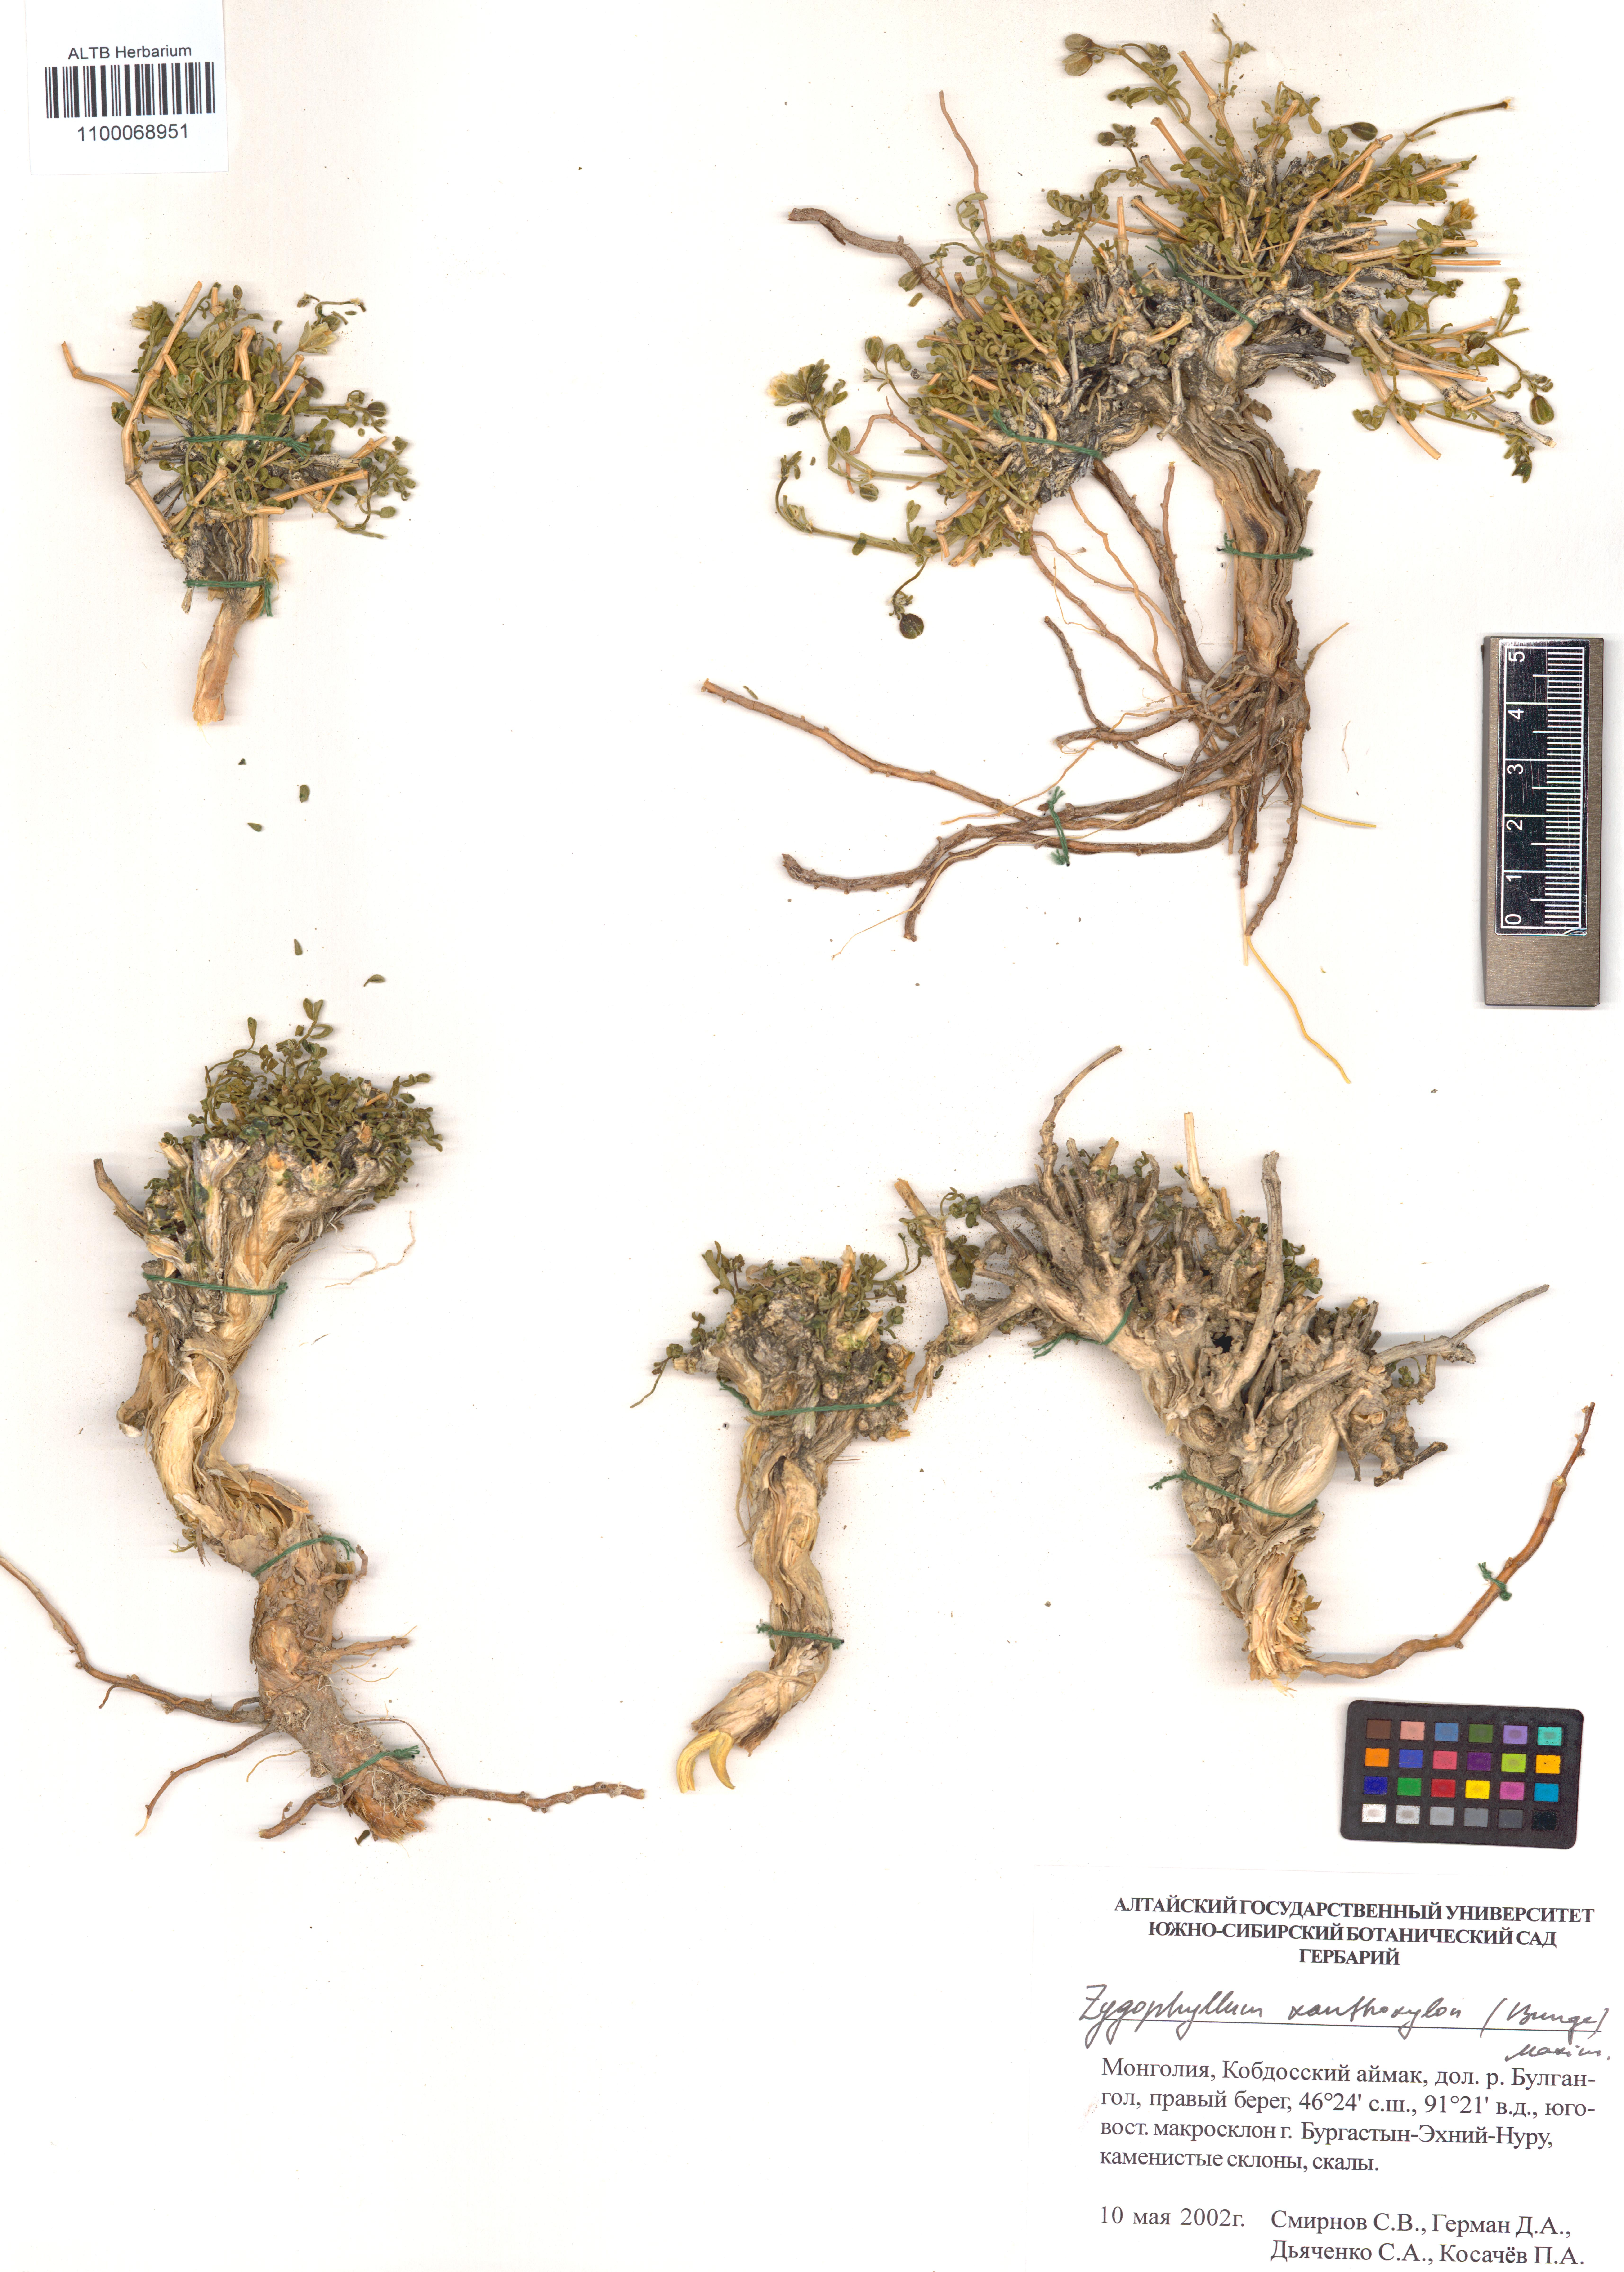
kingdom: Plantae
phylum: Tracheophyta
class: Magnoliopsida
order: Zygophyllales
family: Zygophyllaceae
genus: Zygophyllum
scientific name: Zygophyllum xanthoxylum
